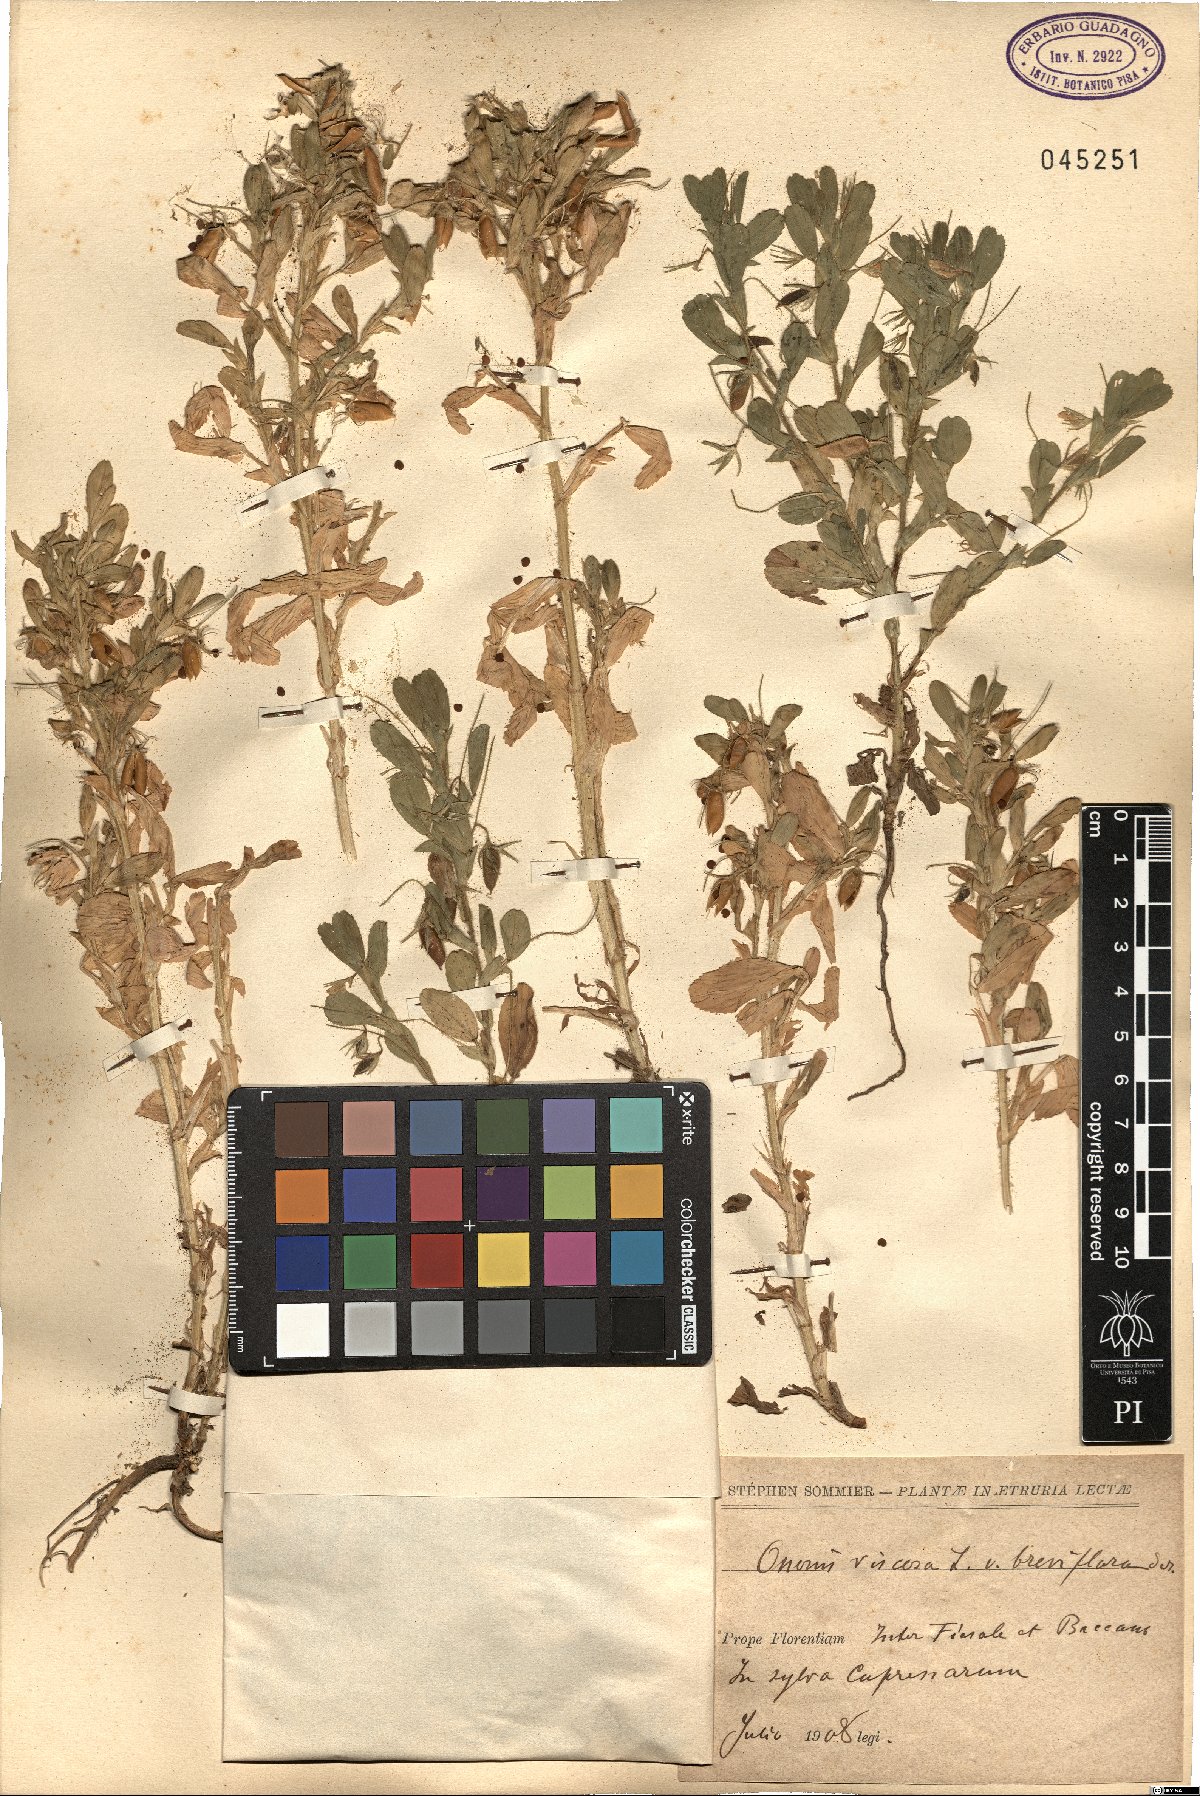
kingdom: Plantae
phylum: Tracheophyta
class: Magnoliopsida
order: Fabales
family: Fabaceae
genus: Ononis
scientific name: Ononis viscosa
